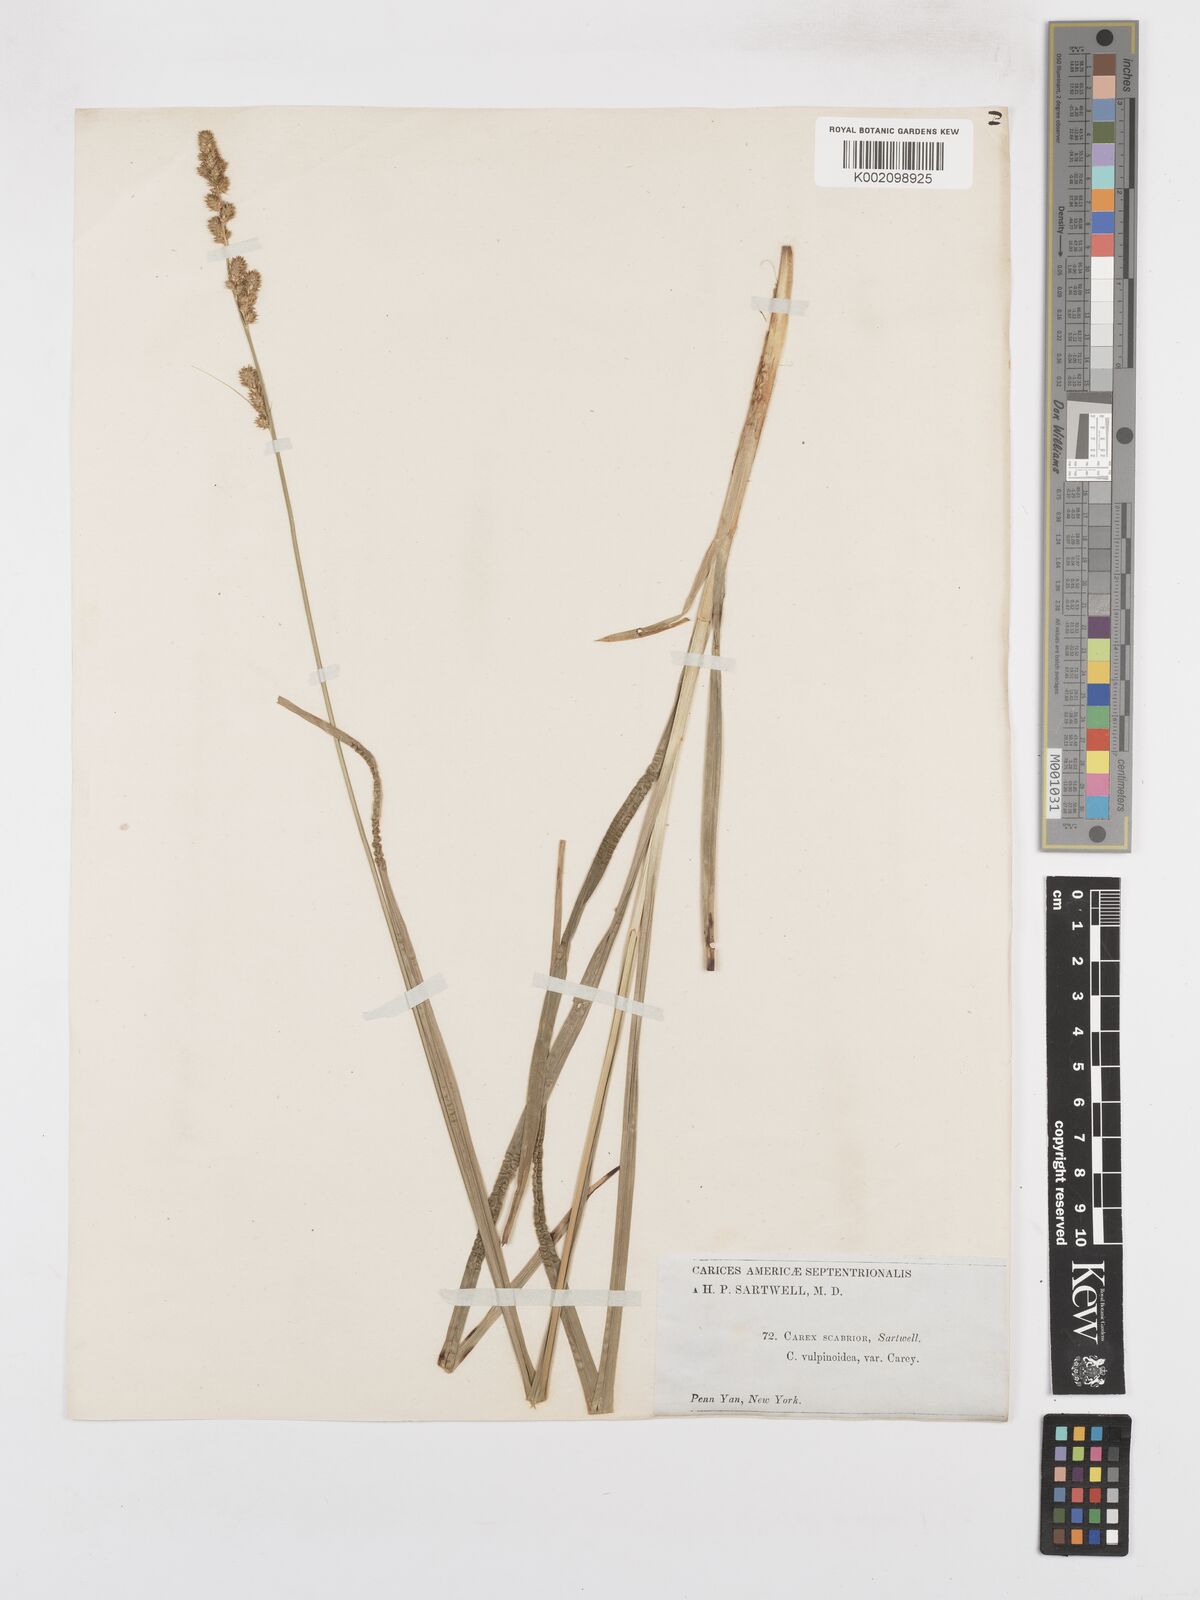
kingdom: Plantae
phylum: Tracheophyta
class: Liliopsida
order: Poales
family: Cyperaceae
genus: Carex
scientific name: Carex vulpinoidea
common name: American fox-sedge
